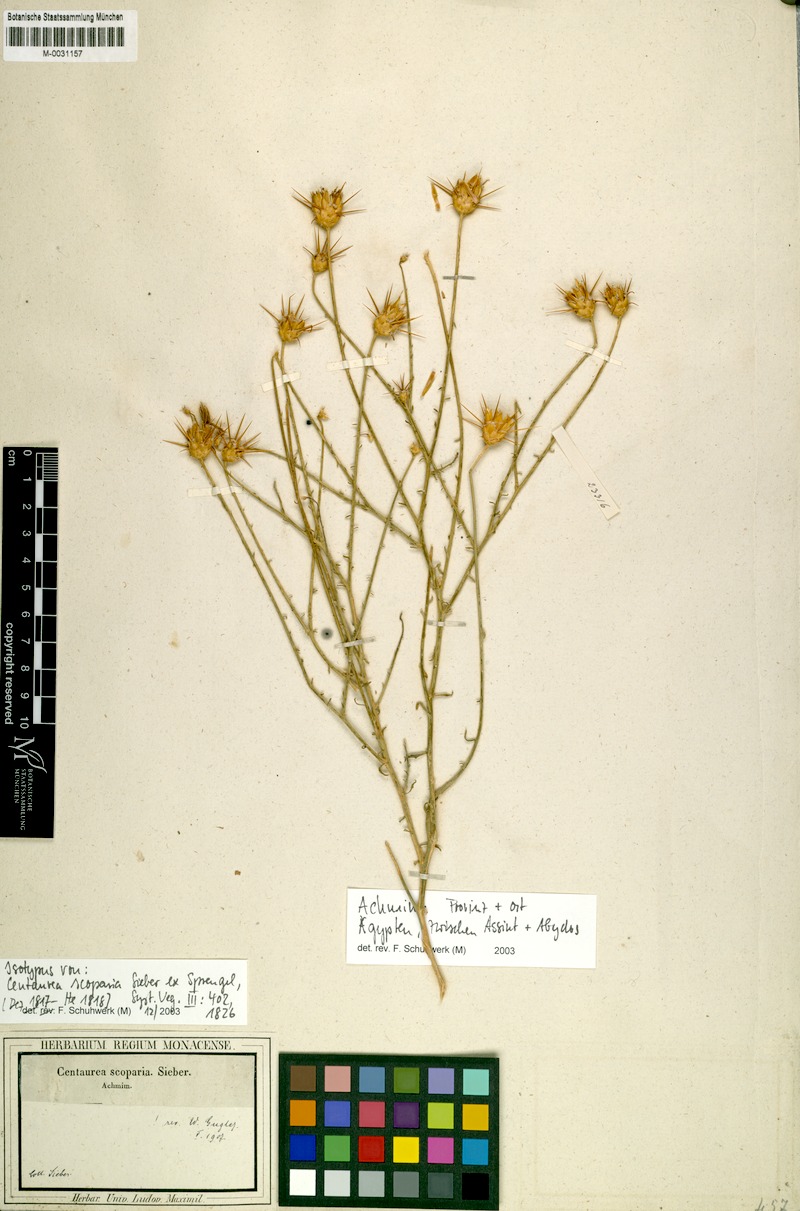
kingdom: Plantae
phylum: Tracheophyta
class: Magnoliopsida
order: Asterales
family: Asteraceae
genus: Centaurea
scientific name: Centaurea scoparia
